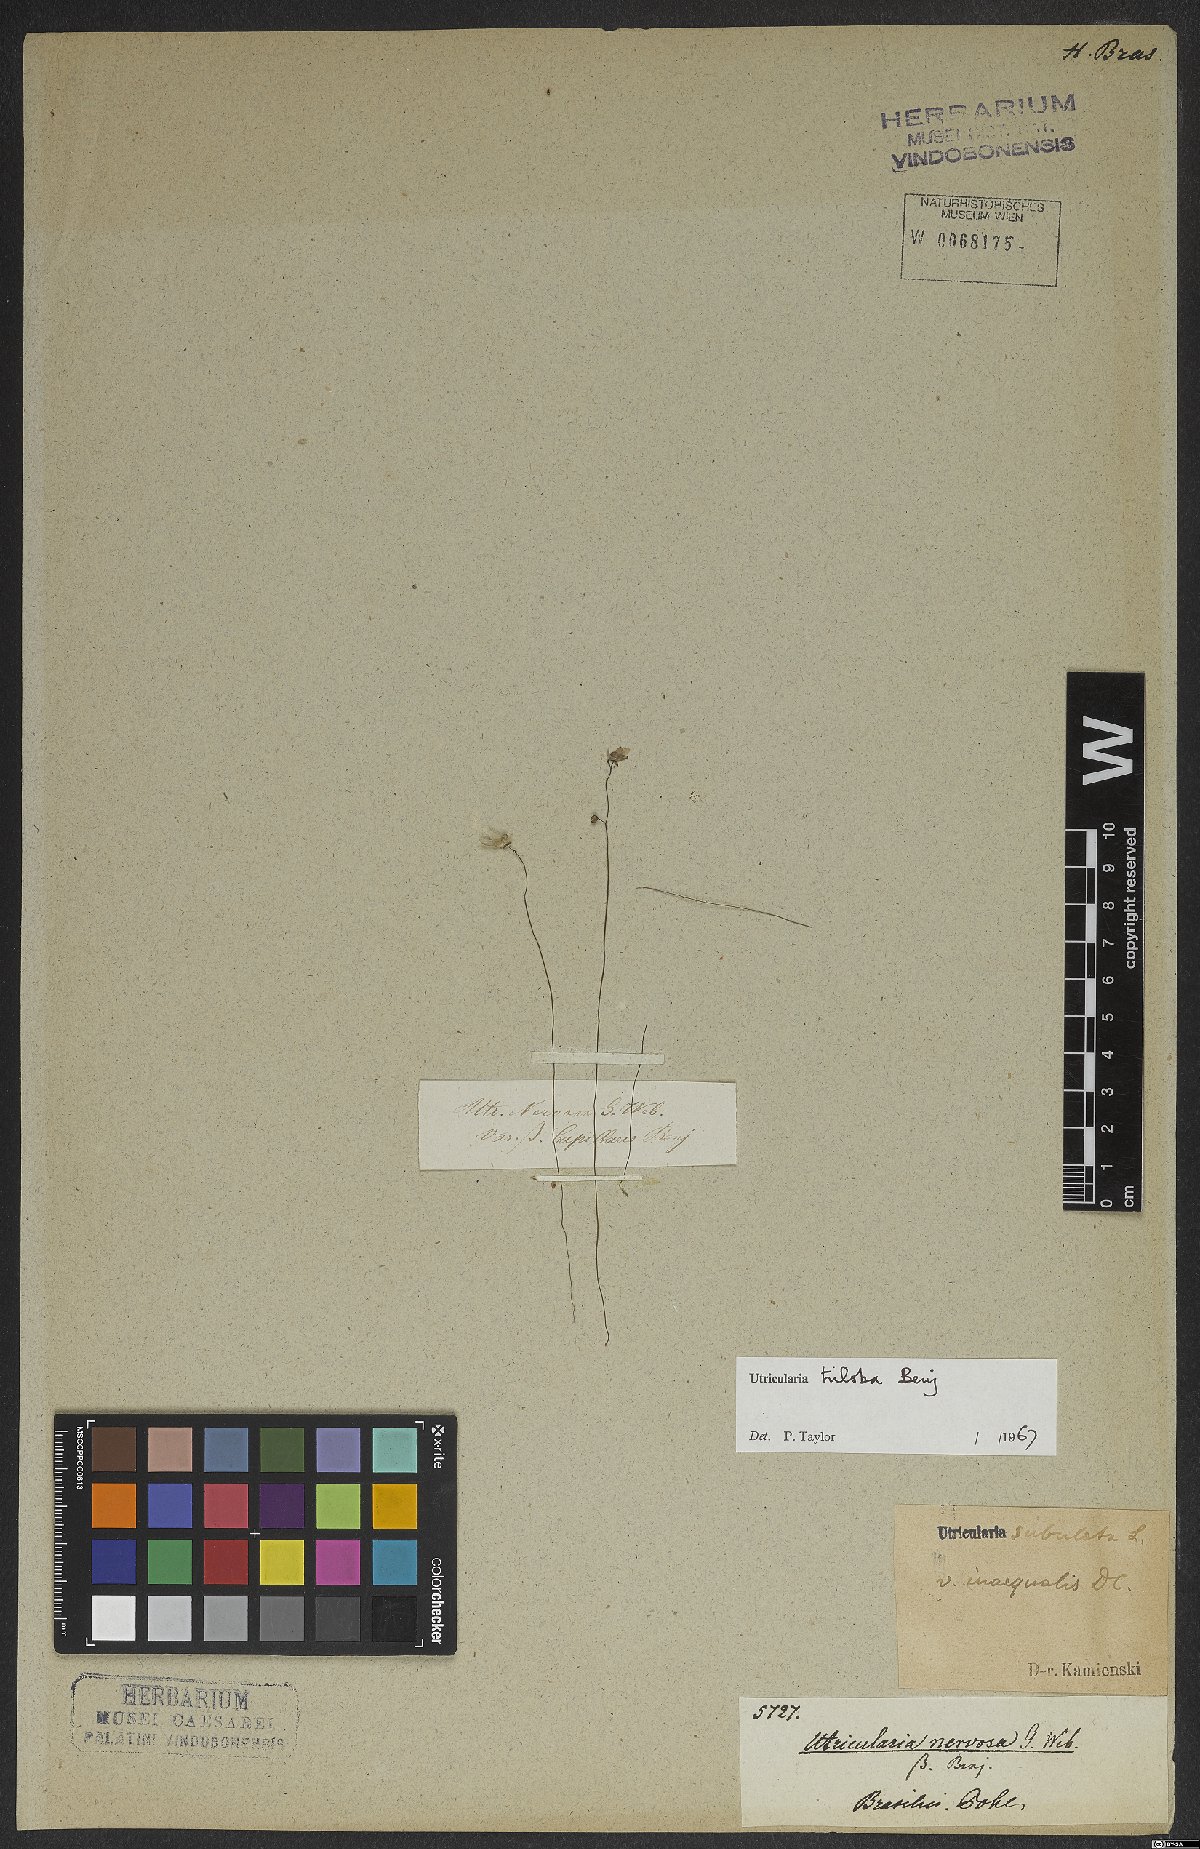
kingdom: Plantae
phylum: Tracheophyta
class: Magnoliopsida
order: Lamiales
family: Lentibulariaceae
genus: Utricularia
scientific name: Utricularia subulata
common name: Tiny bladderwort
